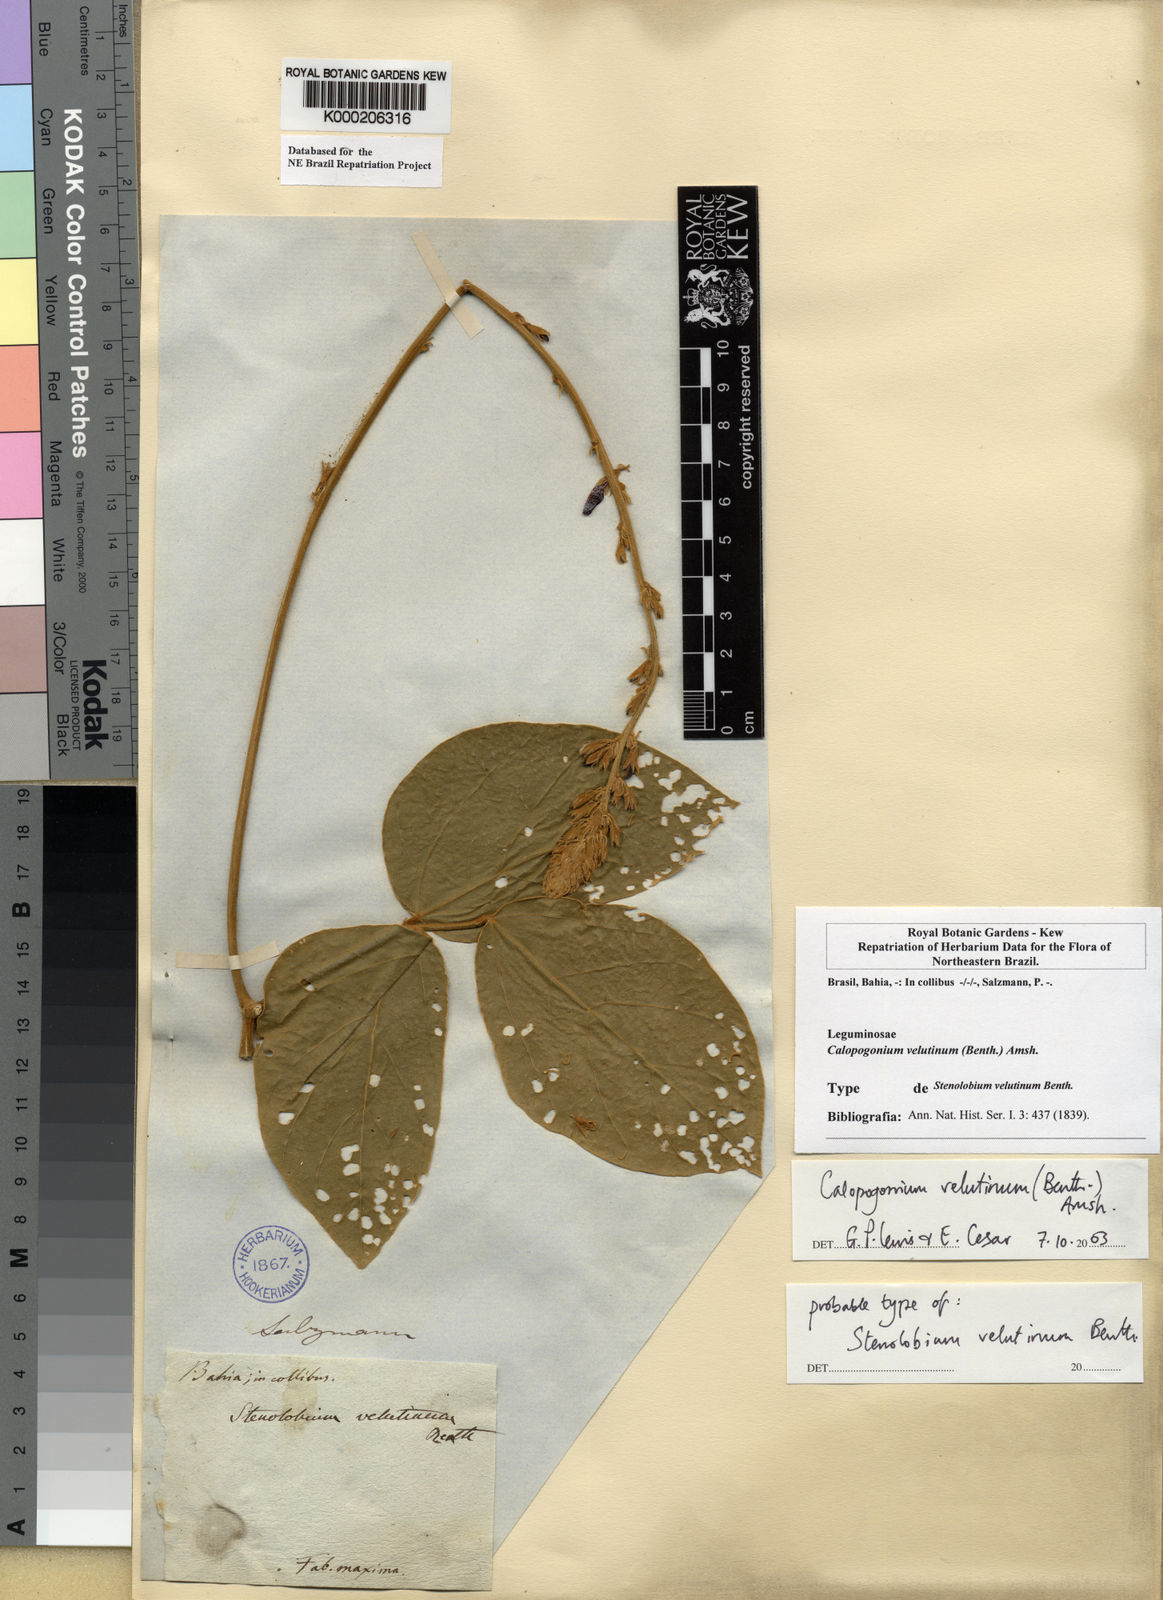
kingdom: Plantae
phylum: Tracheophyta
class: Magnoliopsida
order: Fabales
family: Fabaceae
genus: Calopogonium
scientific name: Calopogonium velutinum
